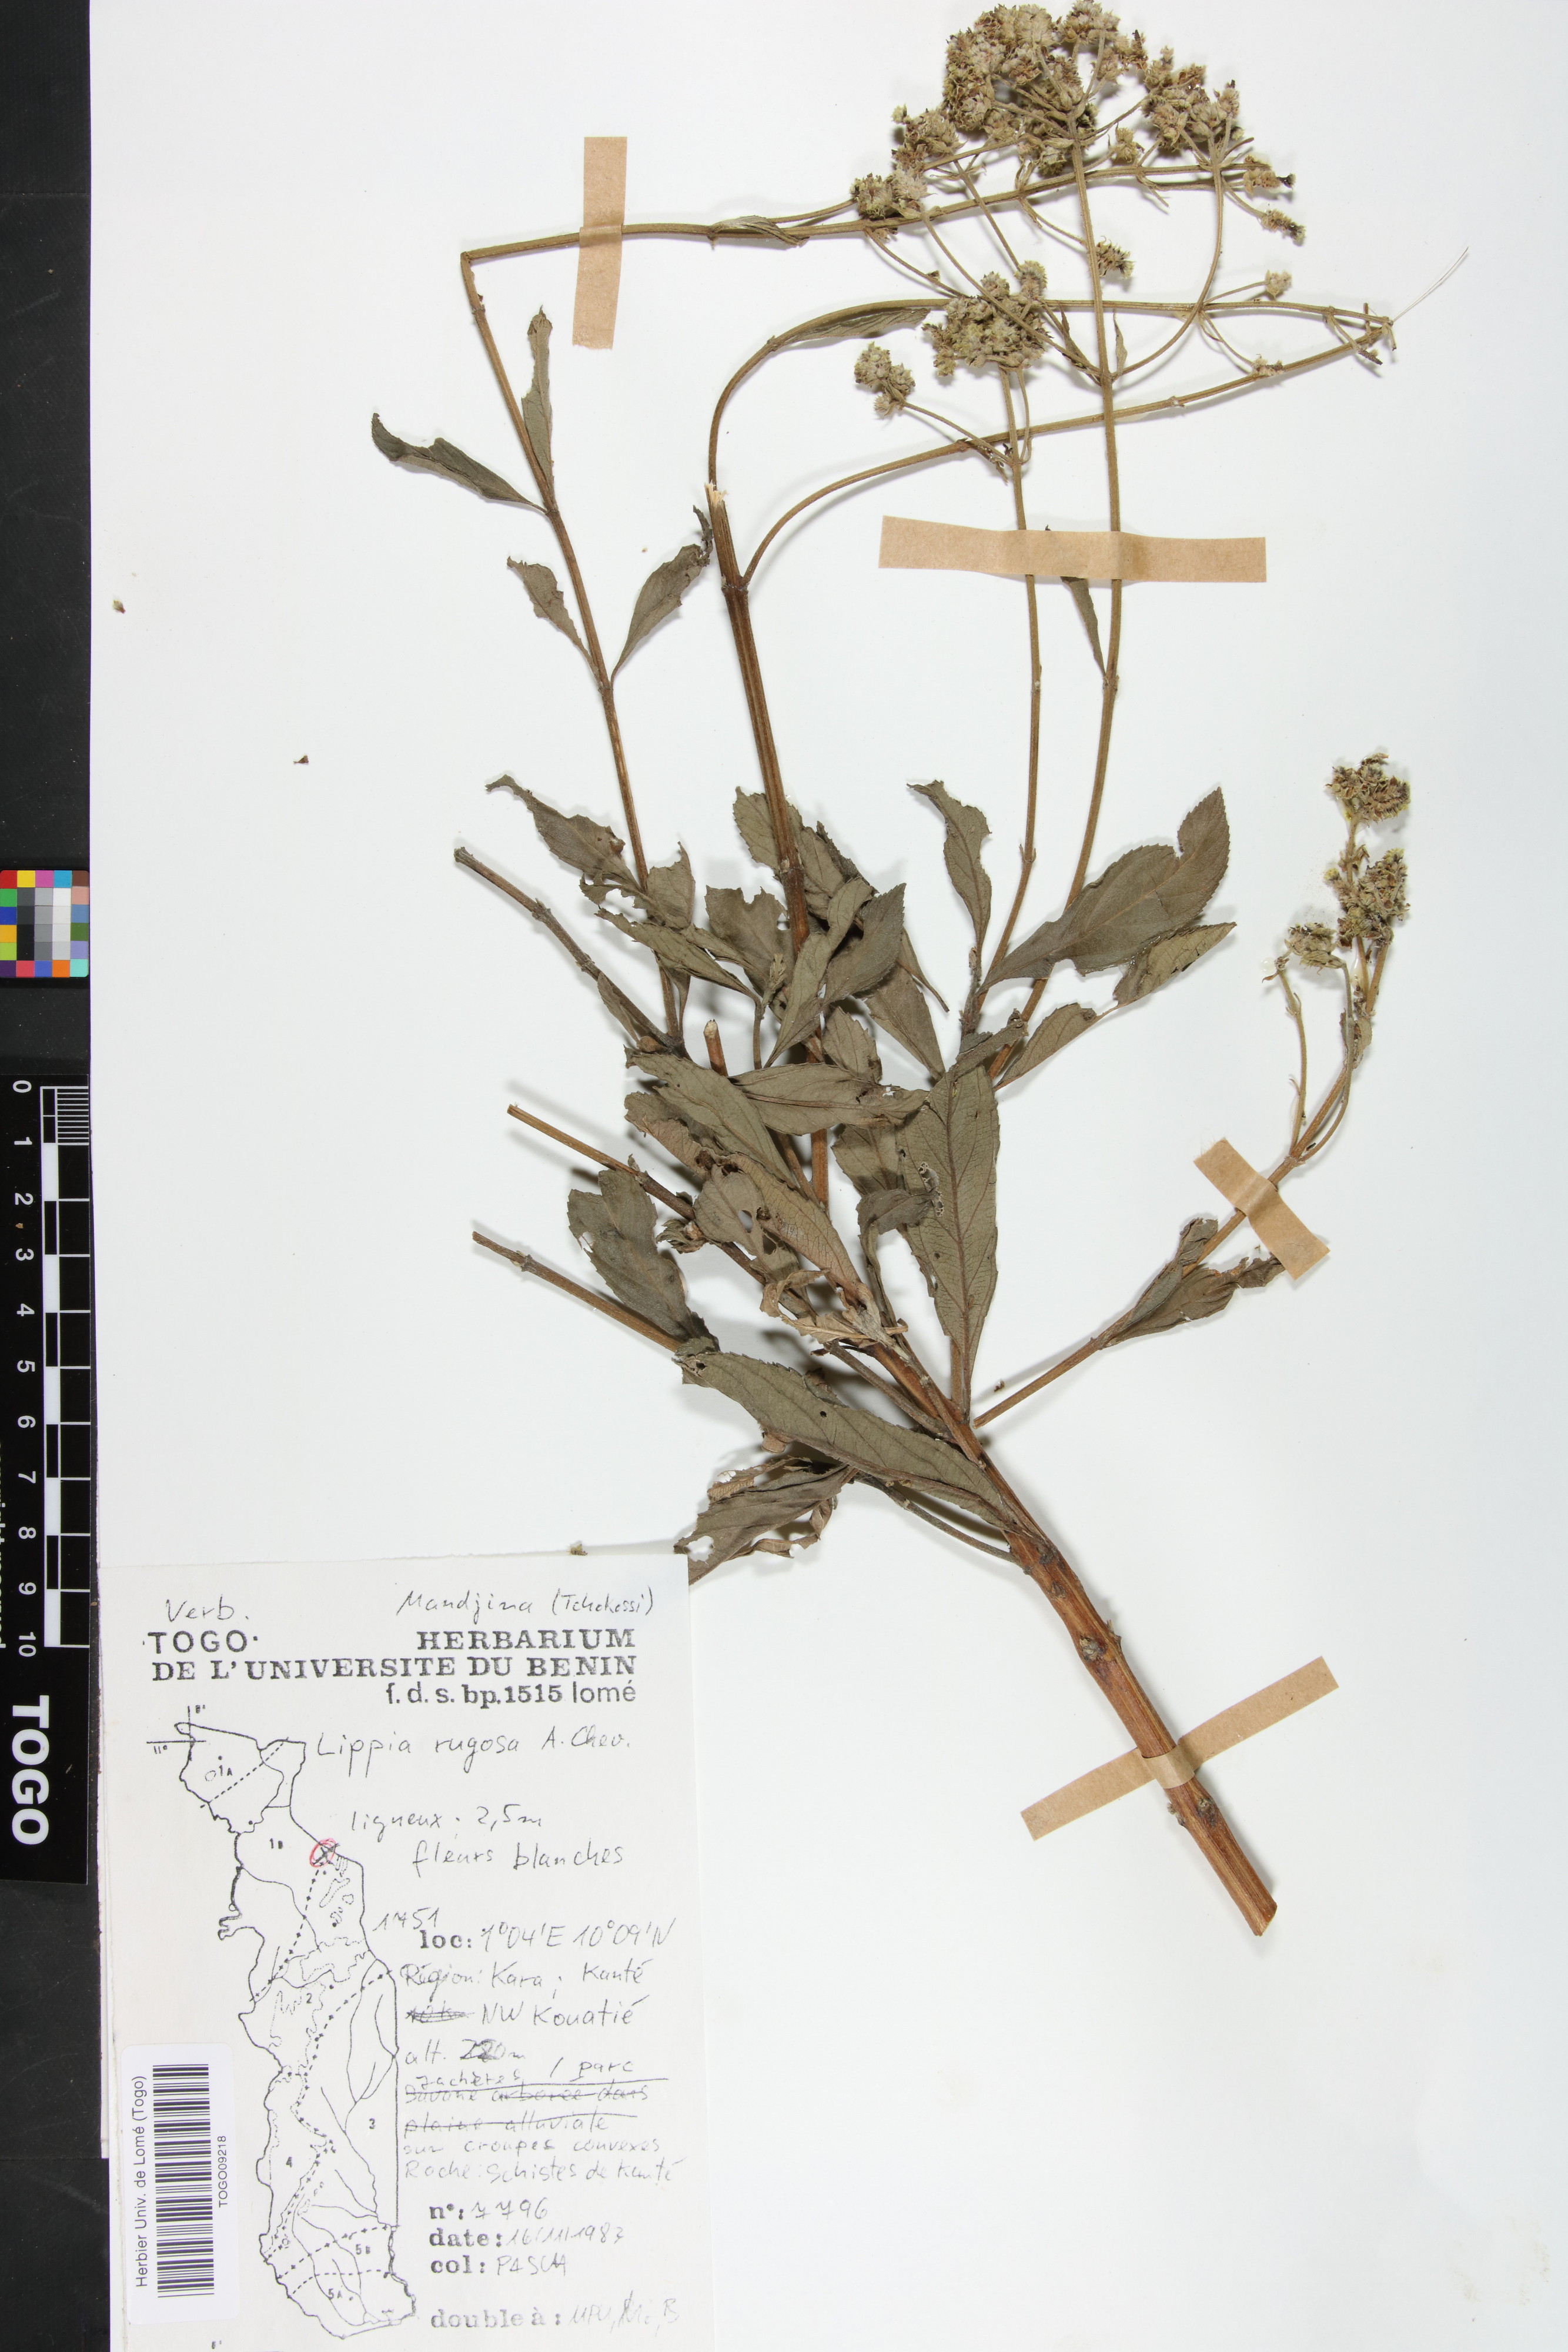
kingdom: Plantae
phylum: Tracheophyta
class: Magnoliopsida
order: Lamiales
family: Verbenaceae
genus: Lippia
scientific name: Lippia rugosa
